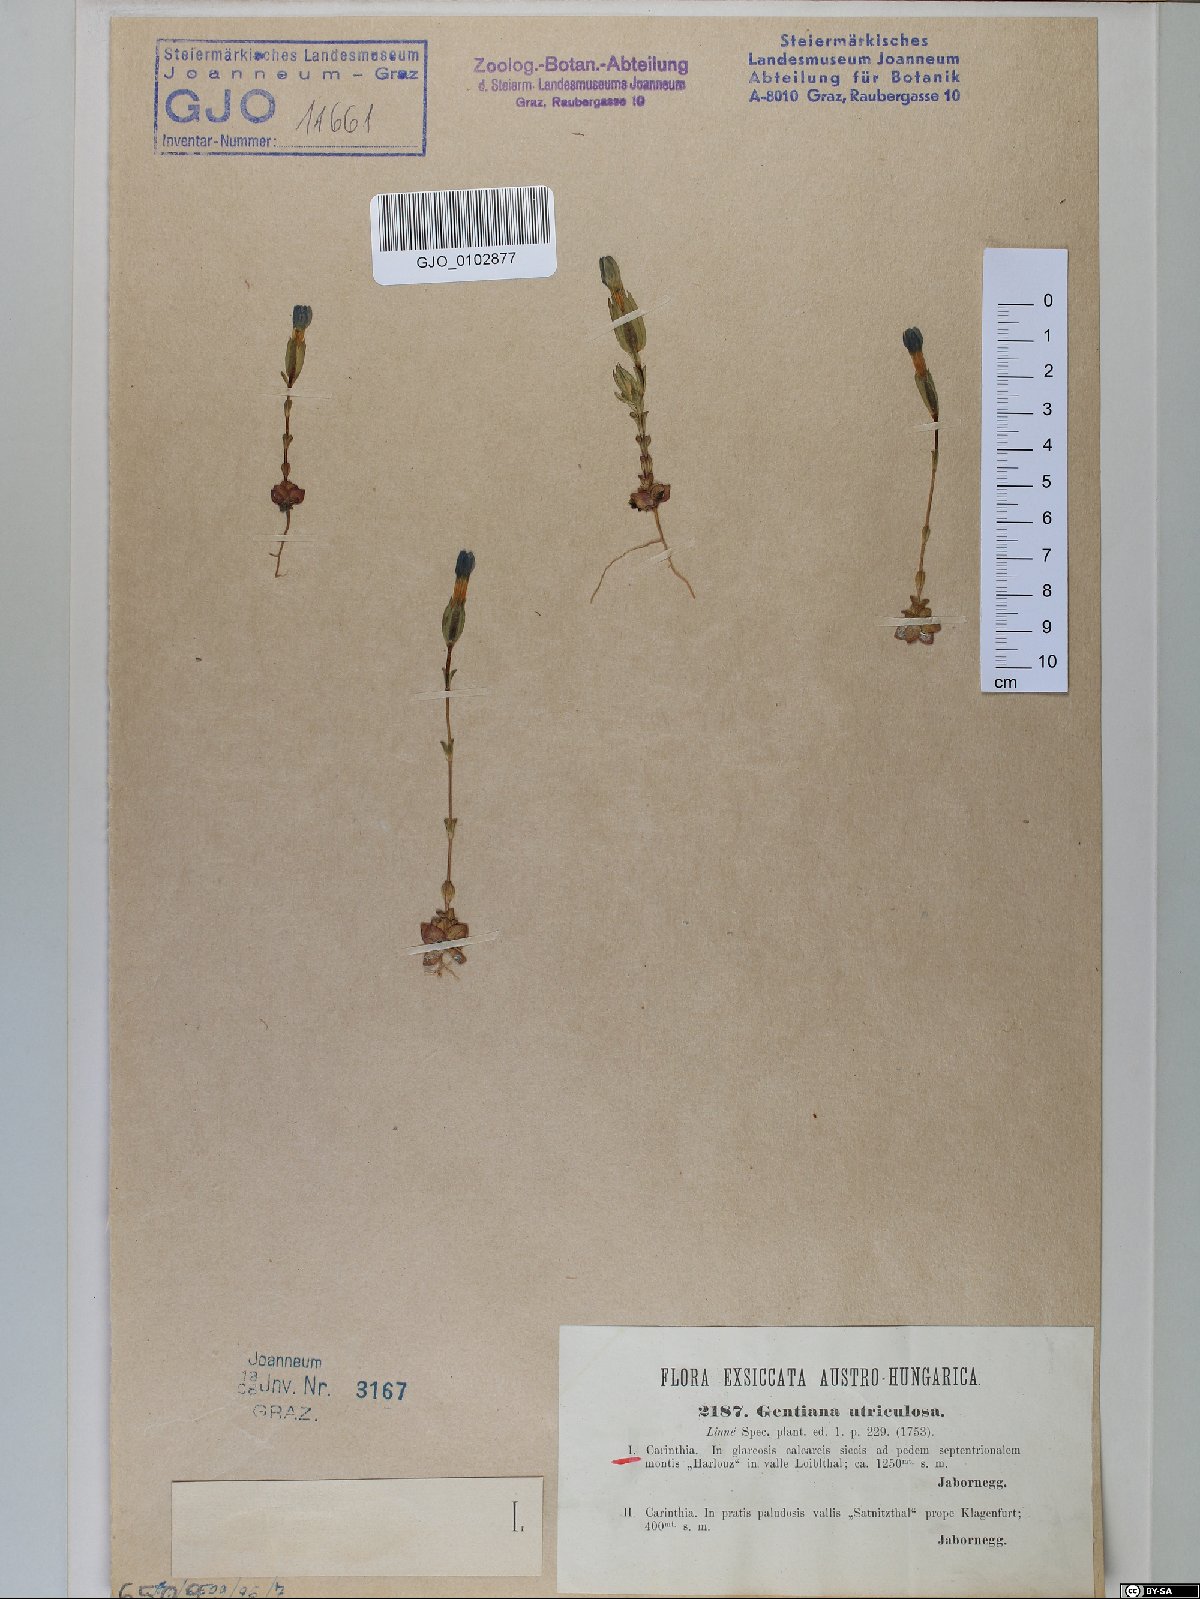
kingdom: Plantae
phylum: Tracheophyta
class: Magnoliopsida
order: Gentianales
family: Gentianaceae
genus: Gentiana
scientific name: Gentiana utriculosa
